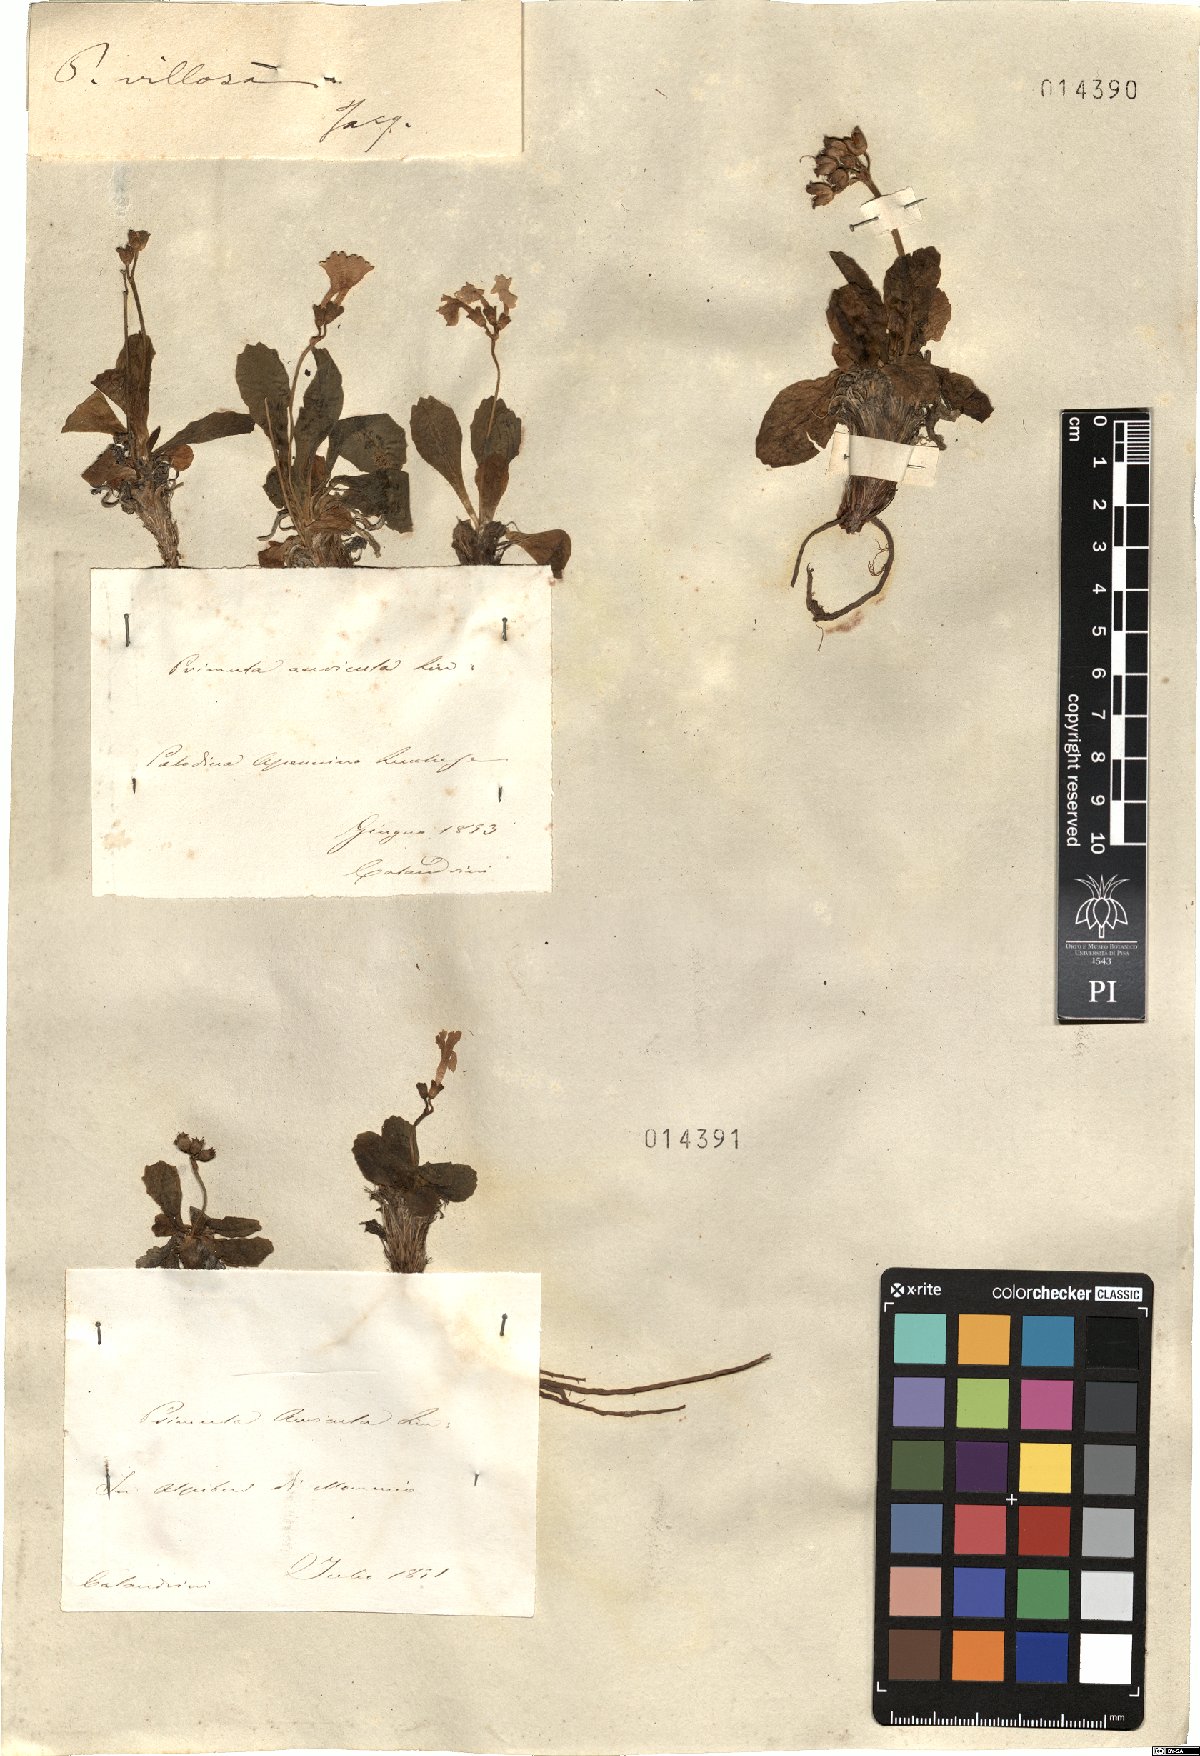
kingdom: Plantae
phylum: Tracheophyta
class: Magnoliopsida
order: Ericales
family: Primulaceae
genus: Primula
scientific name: Primula villosa
